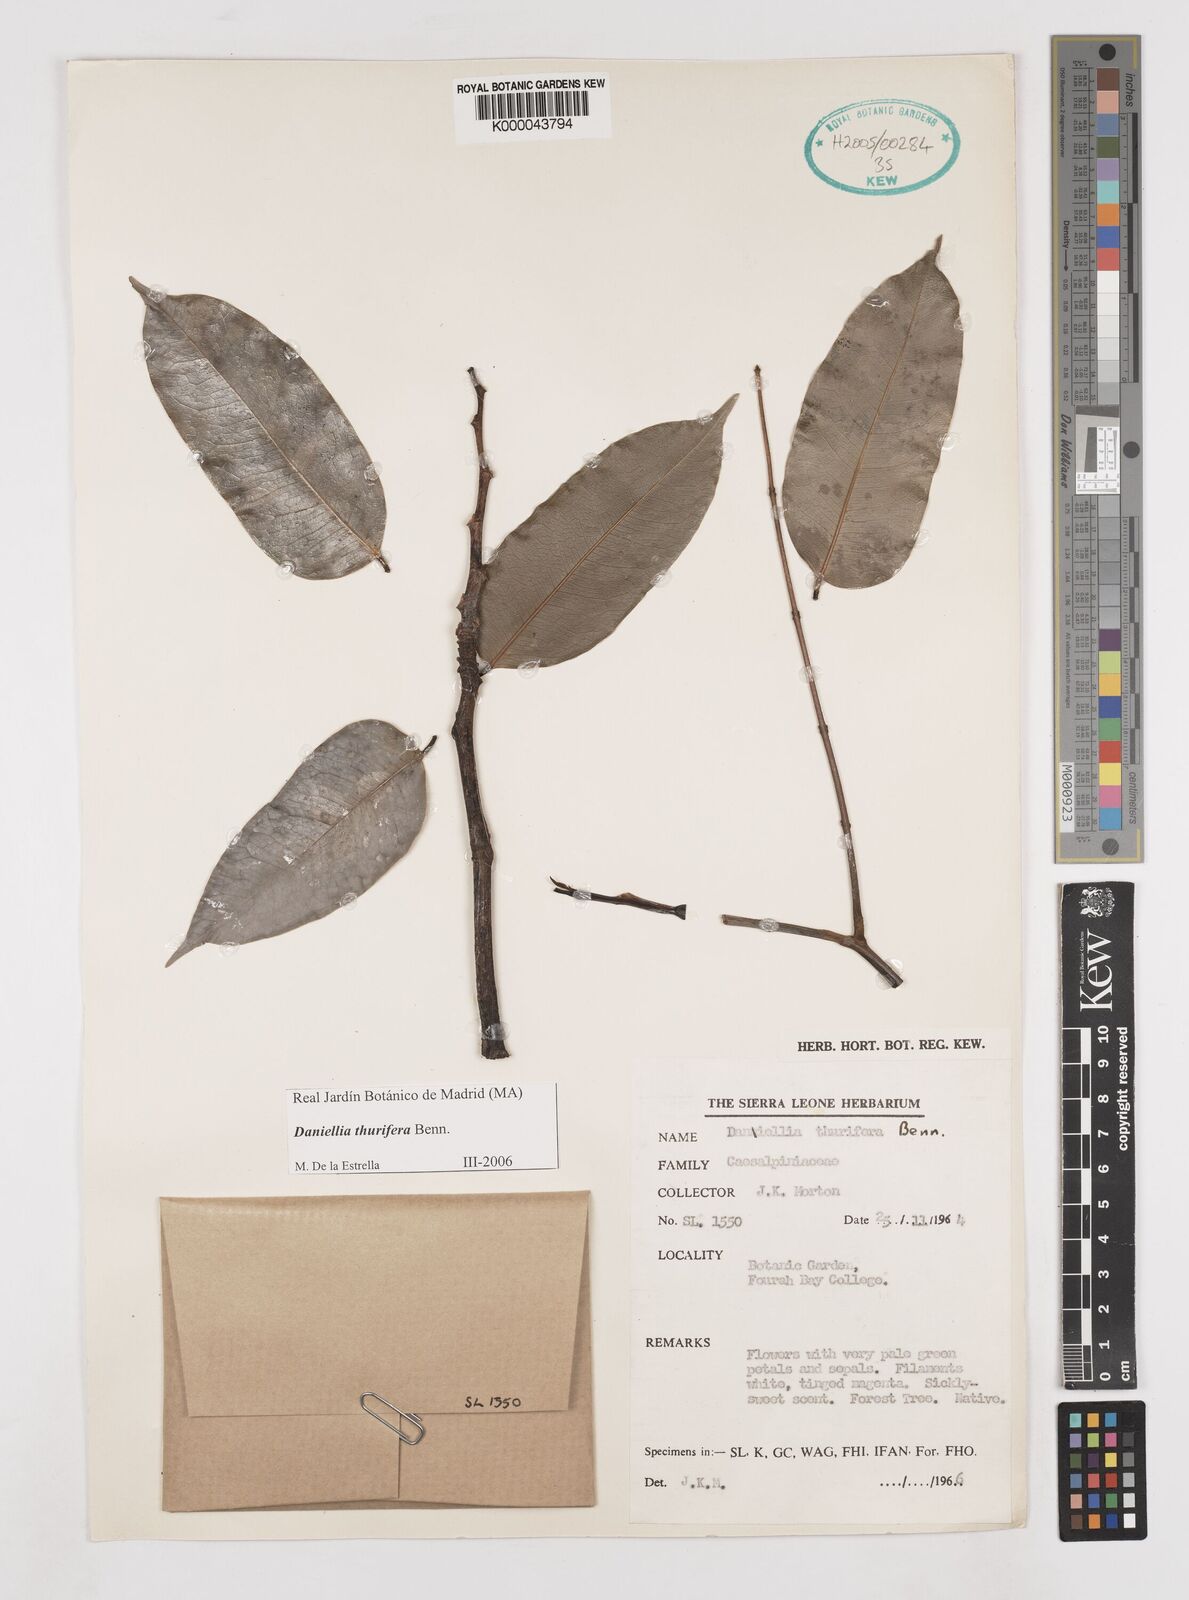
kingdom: Plantae
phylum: Tracheophyta
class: Magnoliopsida
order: Fabales
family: Fabaceae
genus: Daniellia
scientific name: Daniellia thurifera
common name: Sudan copal
